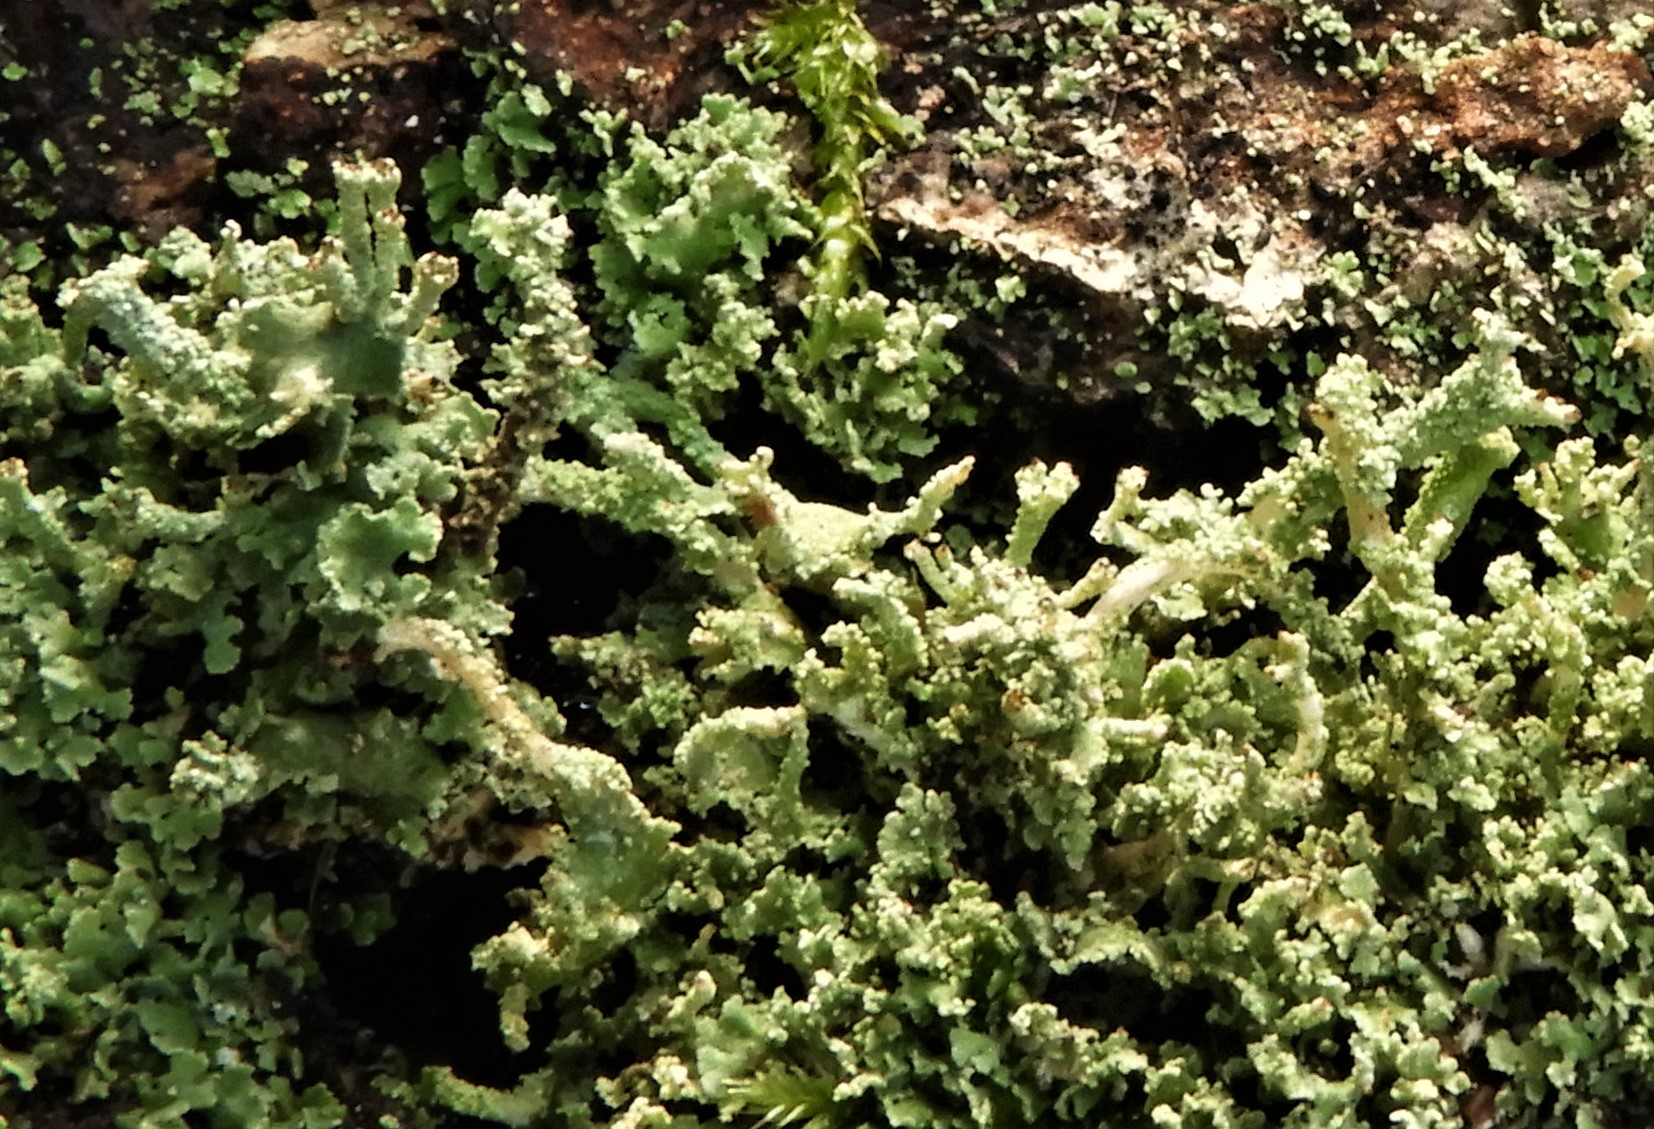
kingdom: Fungi
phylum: Ascomycota
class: Lecanoromycetes
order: Lecanorales
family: Cladoniaceae
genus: Cladonia
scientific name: Cladonia
